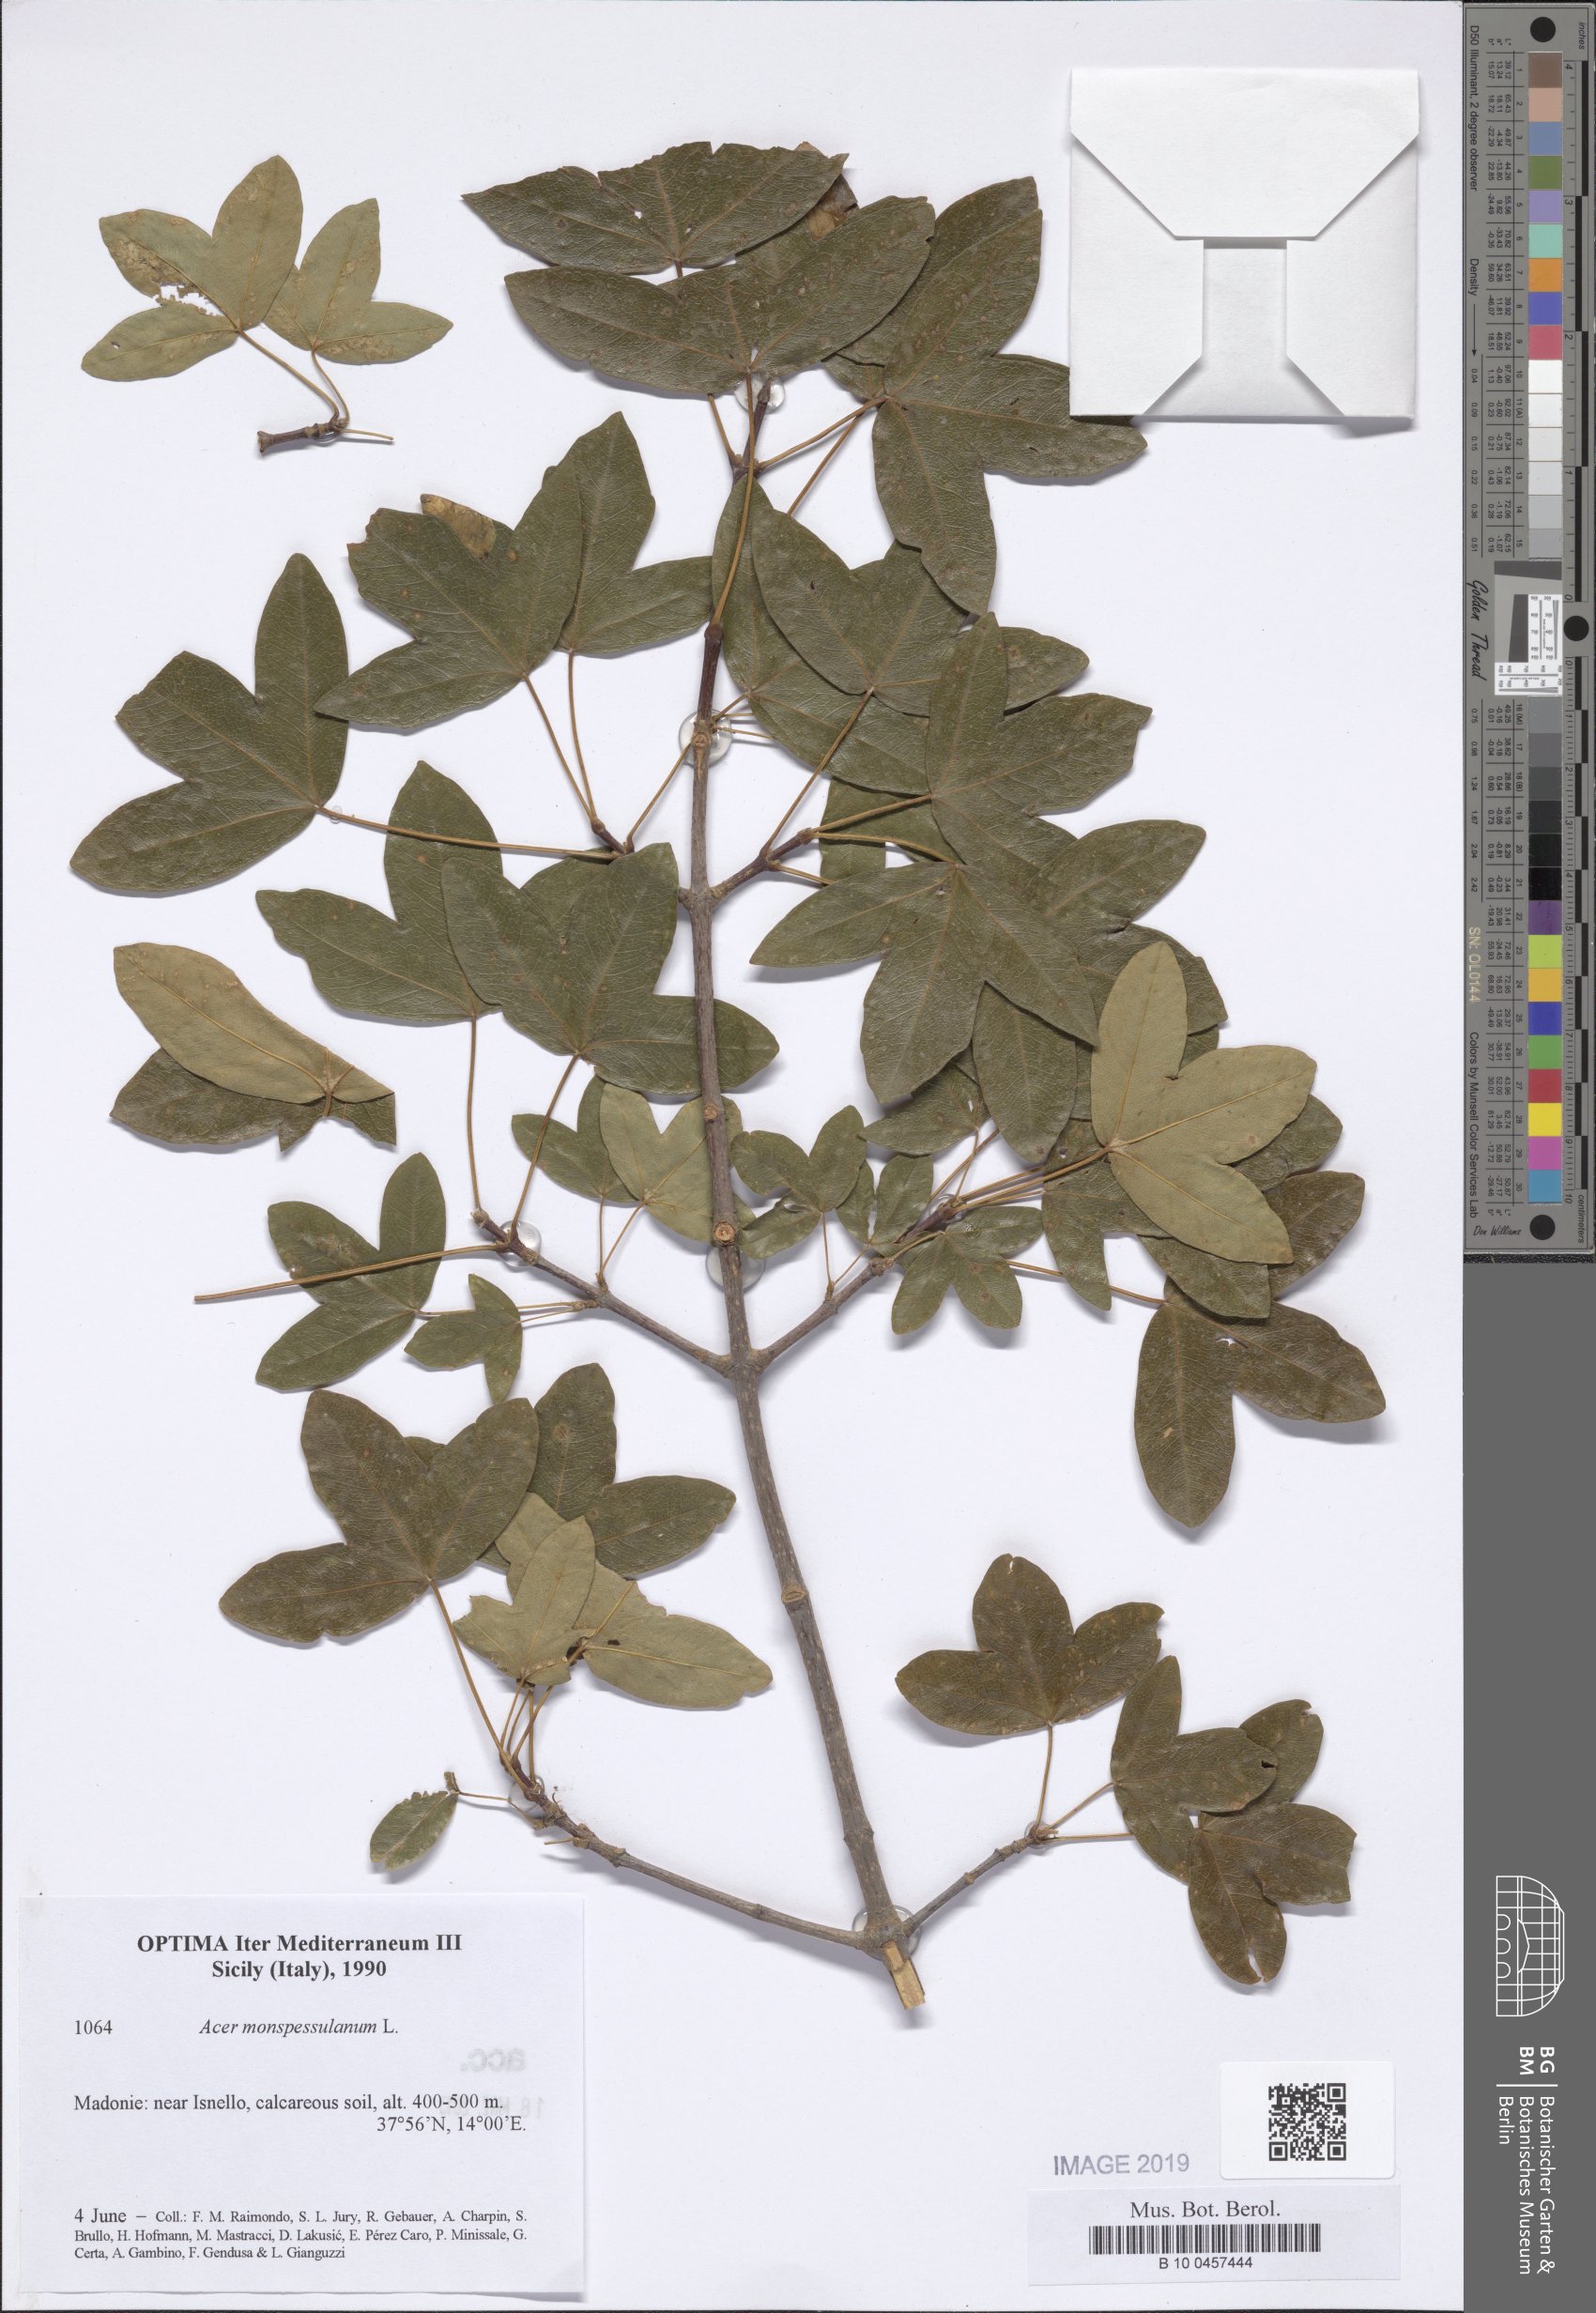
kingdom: Plantae
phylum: Tracheophyta
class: Magnoliopsida
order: Sapindales
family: Sapindaceae
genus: Acer
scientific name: Acer monspessulanum
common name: Montpellier maple
